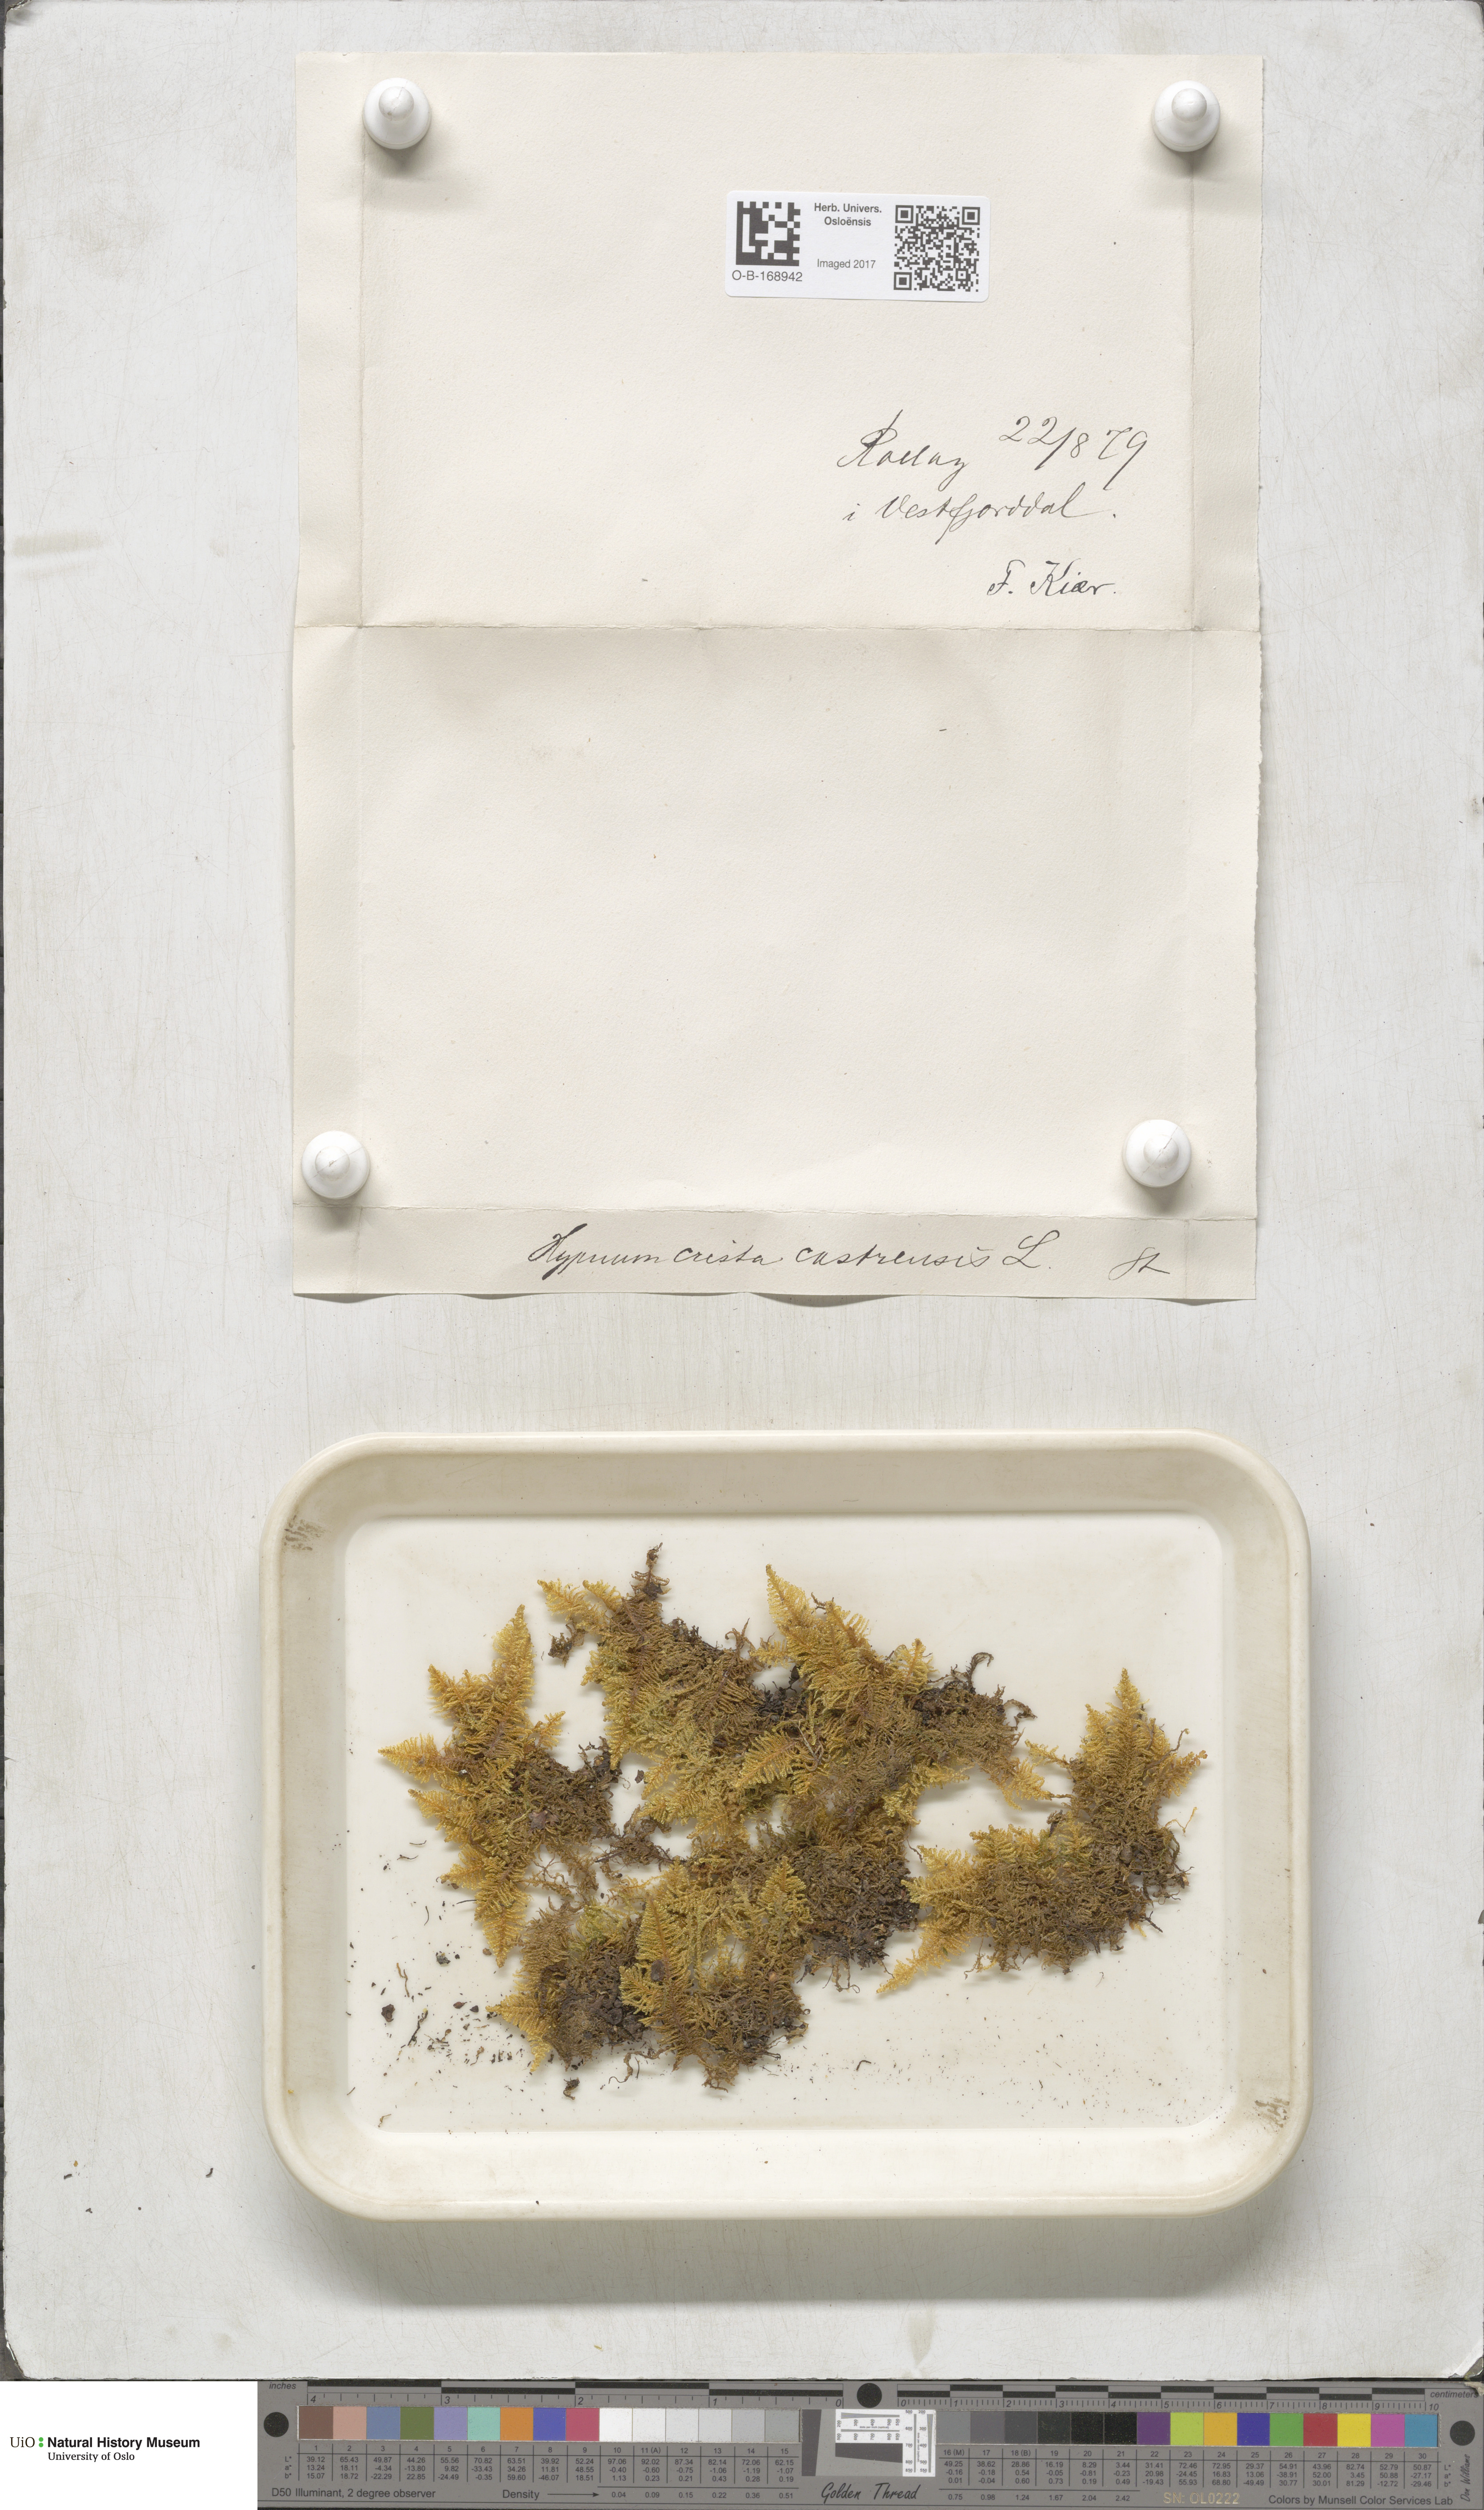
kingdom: Plantae
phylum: Bryophyta
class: Bryopsida
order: Hypnales
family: Pylaisiaceae
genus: Ptilium
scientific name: Ptilium crista-castrensis
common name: Knight's plume moss
